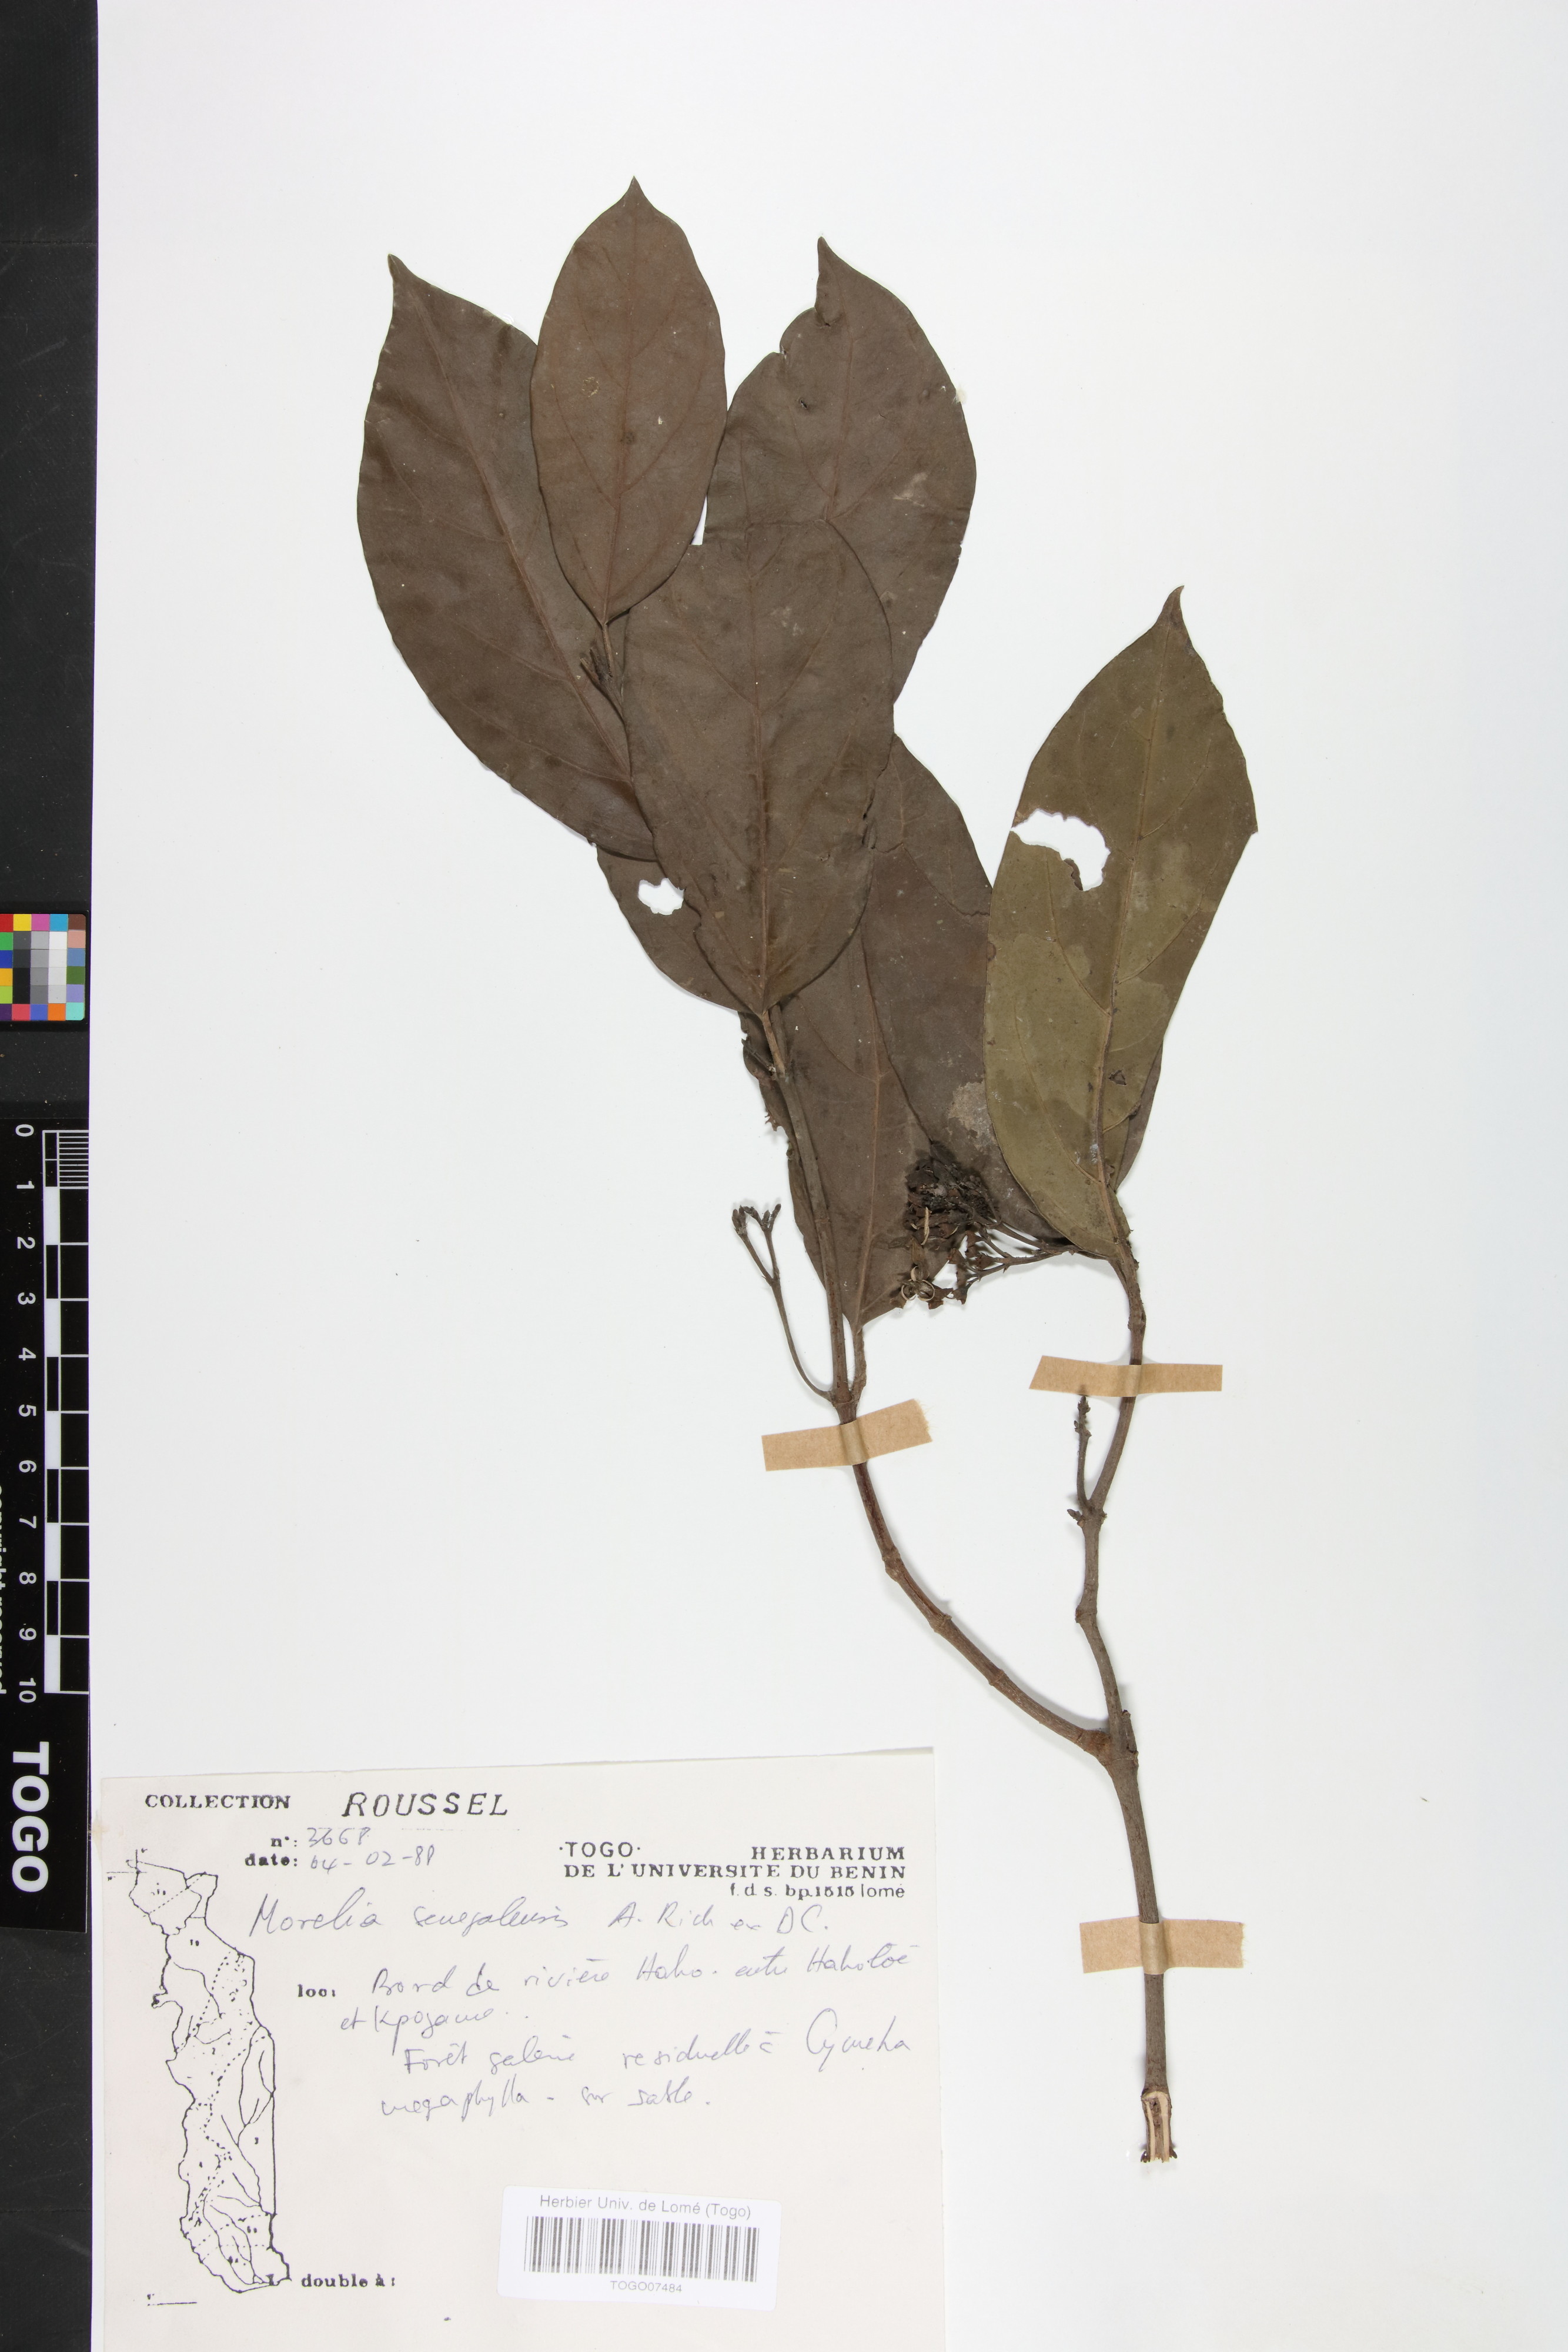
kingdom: Plantae
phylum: Tracheophyta
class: Magnoliopsida
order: Gentianales
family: Rubiaceae
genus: Morelia
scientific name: Morelia senegalensis
